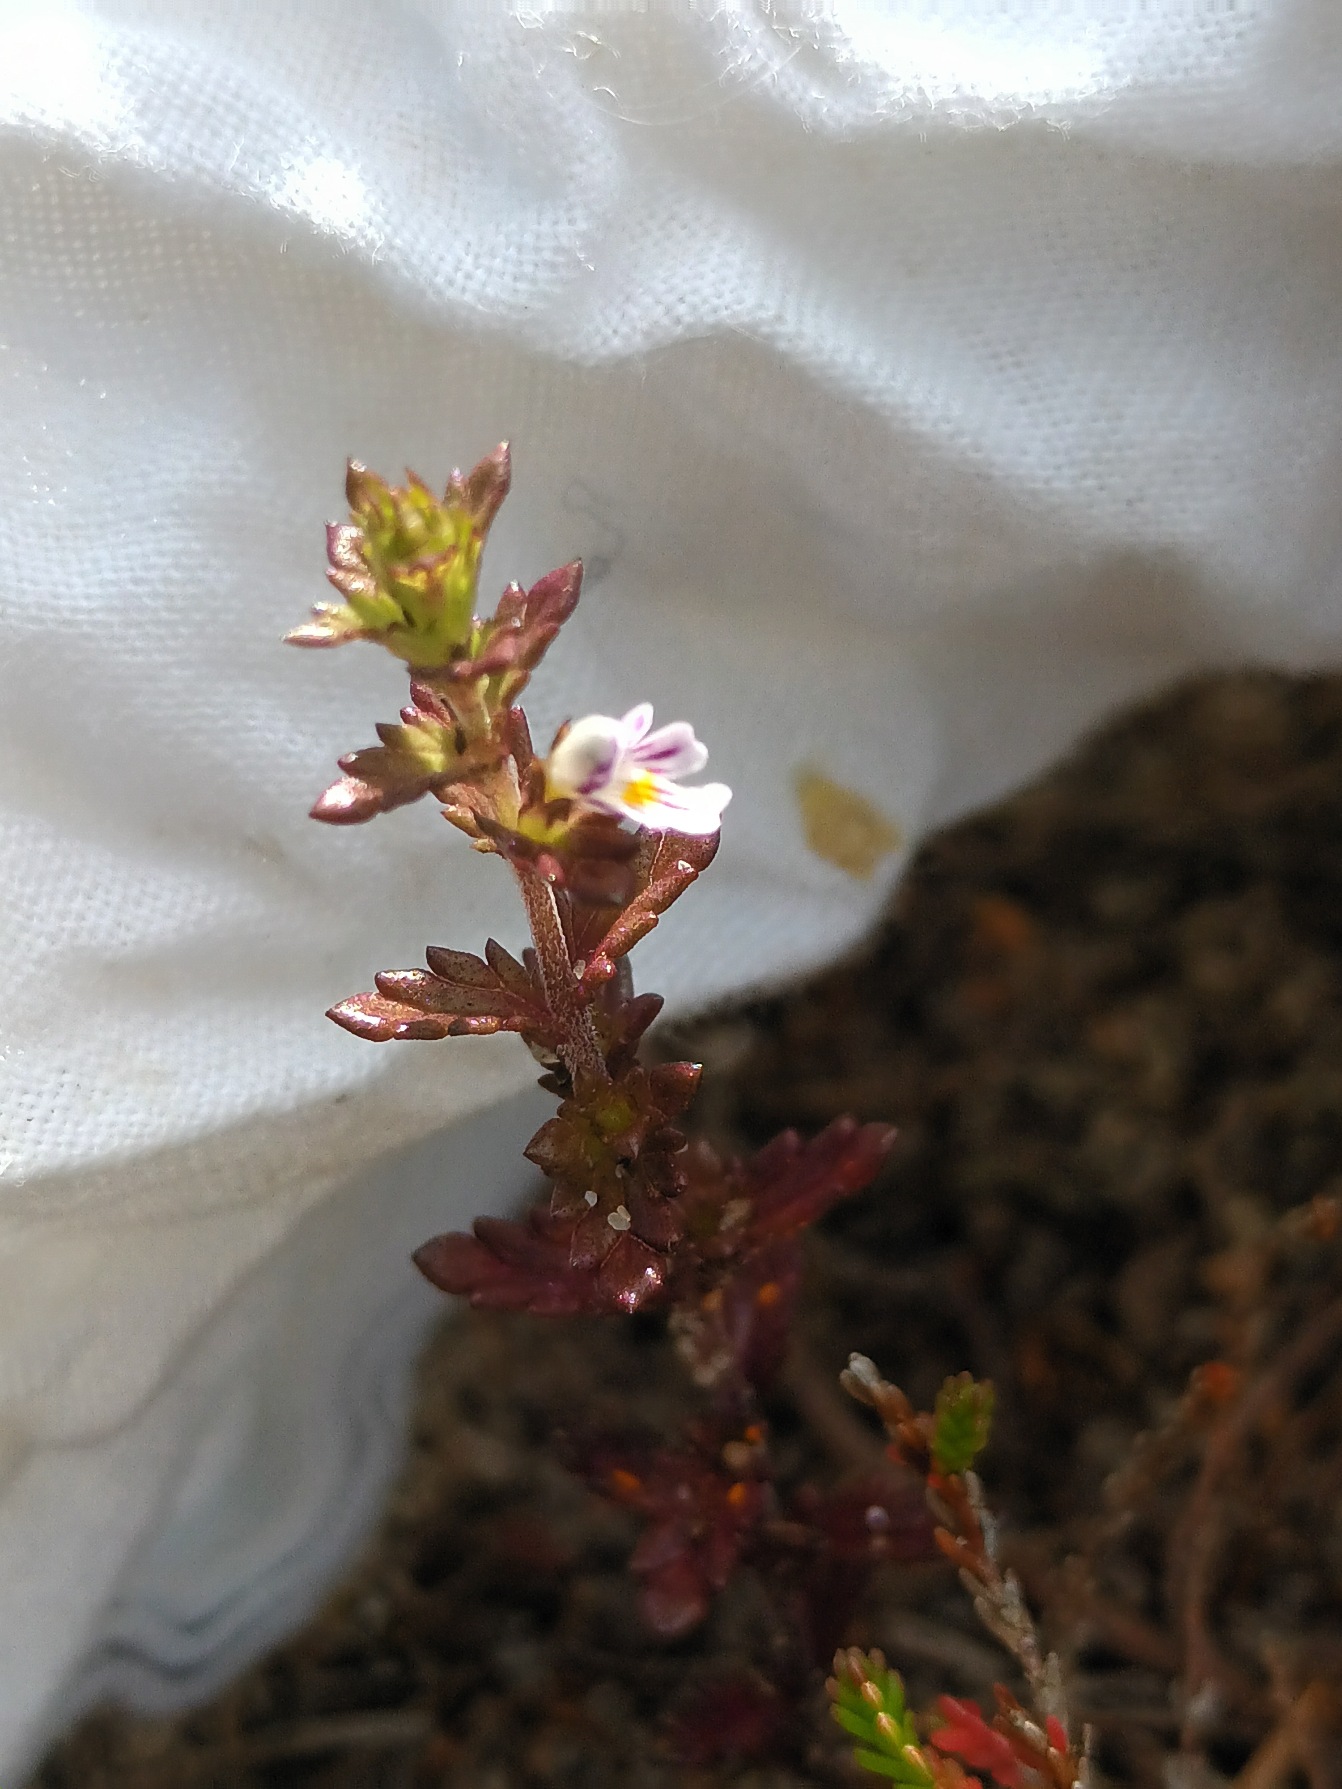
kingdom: Plantae
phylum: Tracheophyta
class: Magnoliopsida
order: Lamiales
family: Orobanchaceae
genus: Euphrasia
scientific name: Euphrasia micrantha
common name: Lyng-øjentrøst
